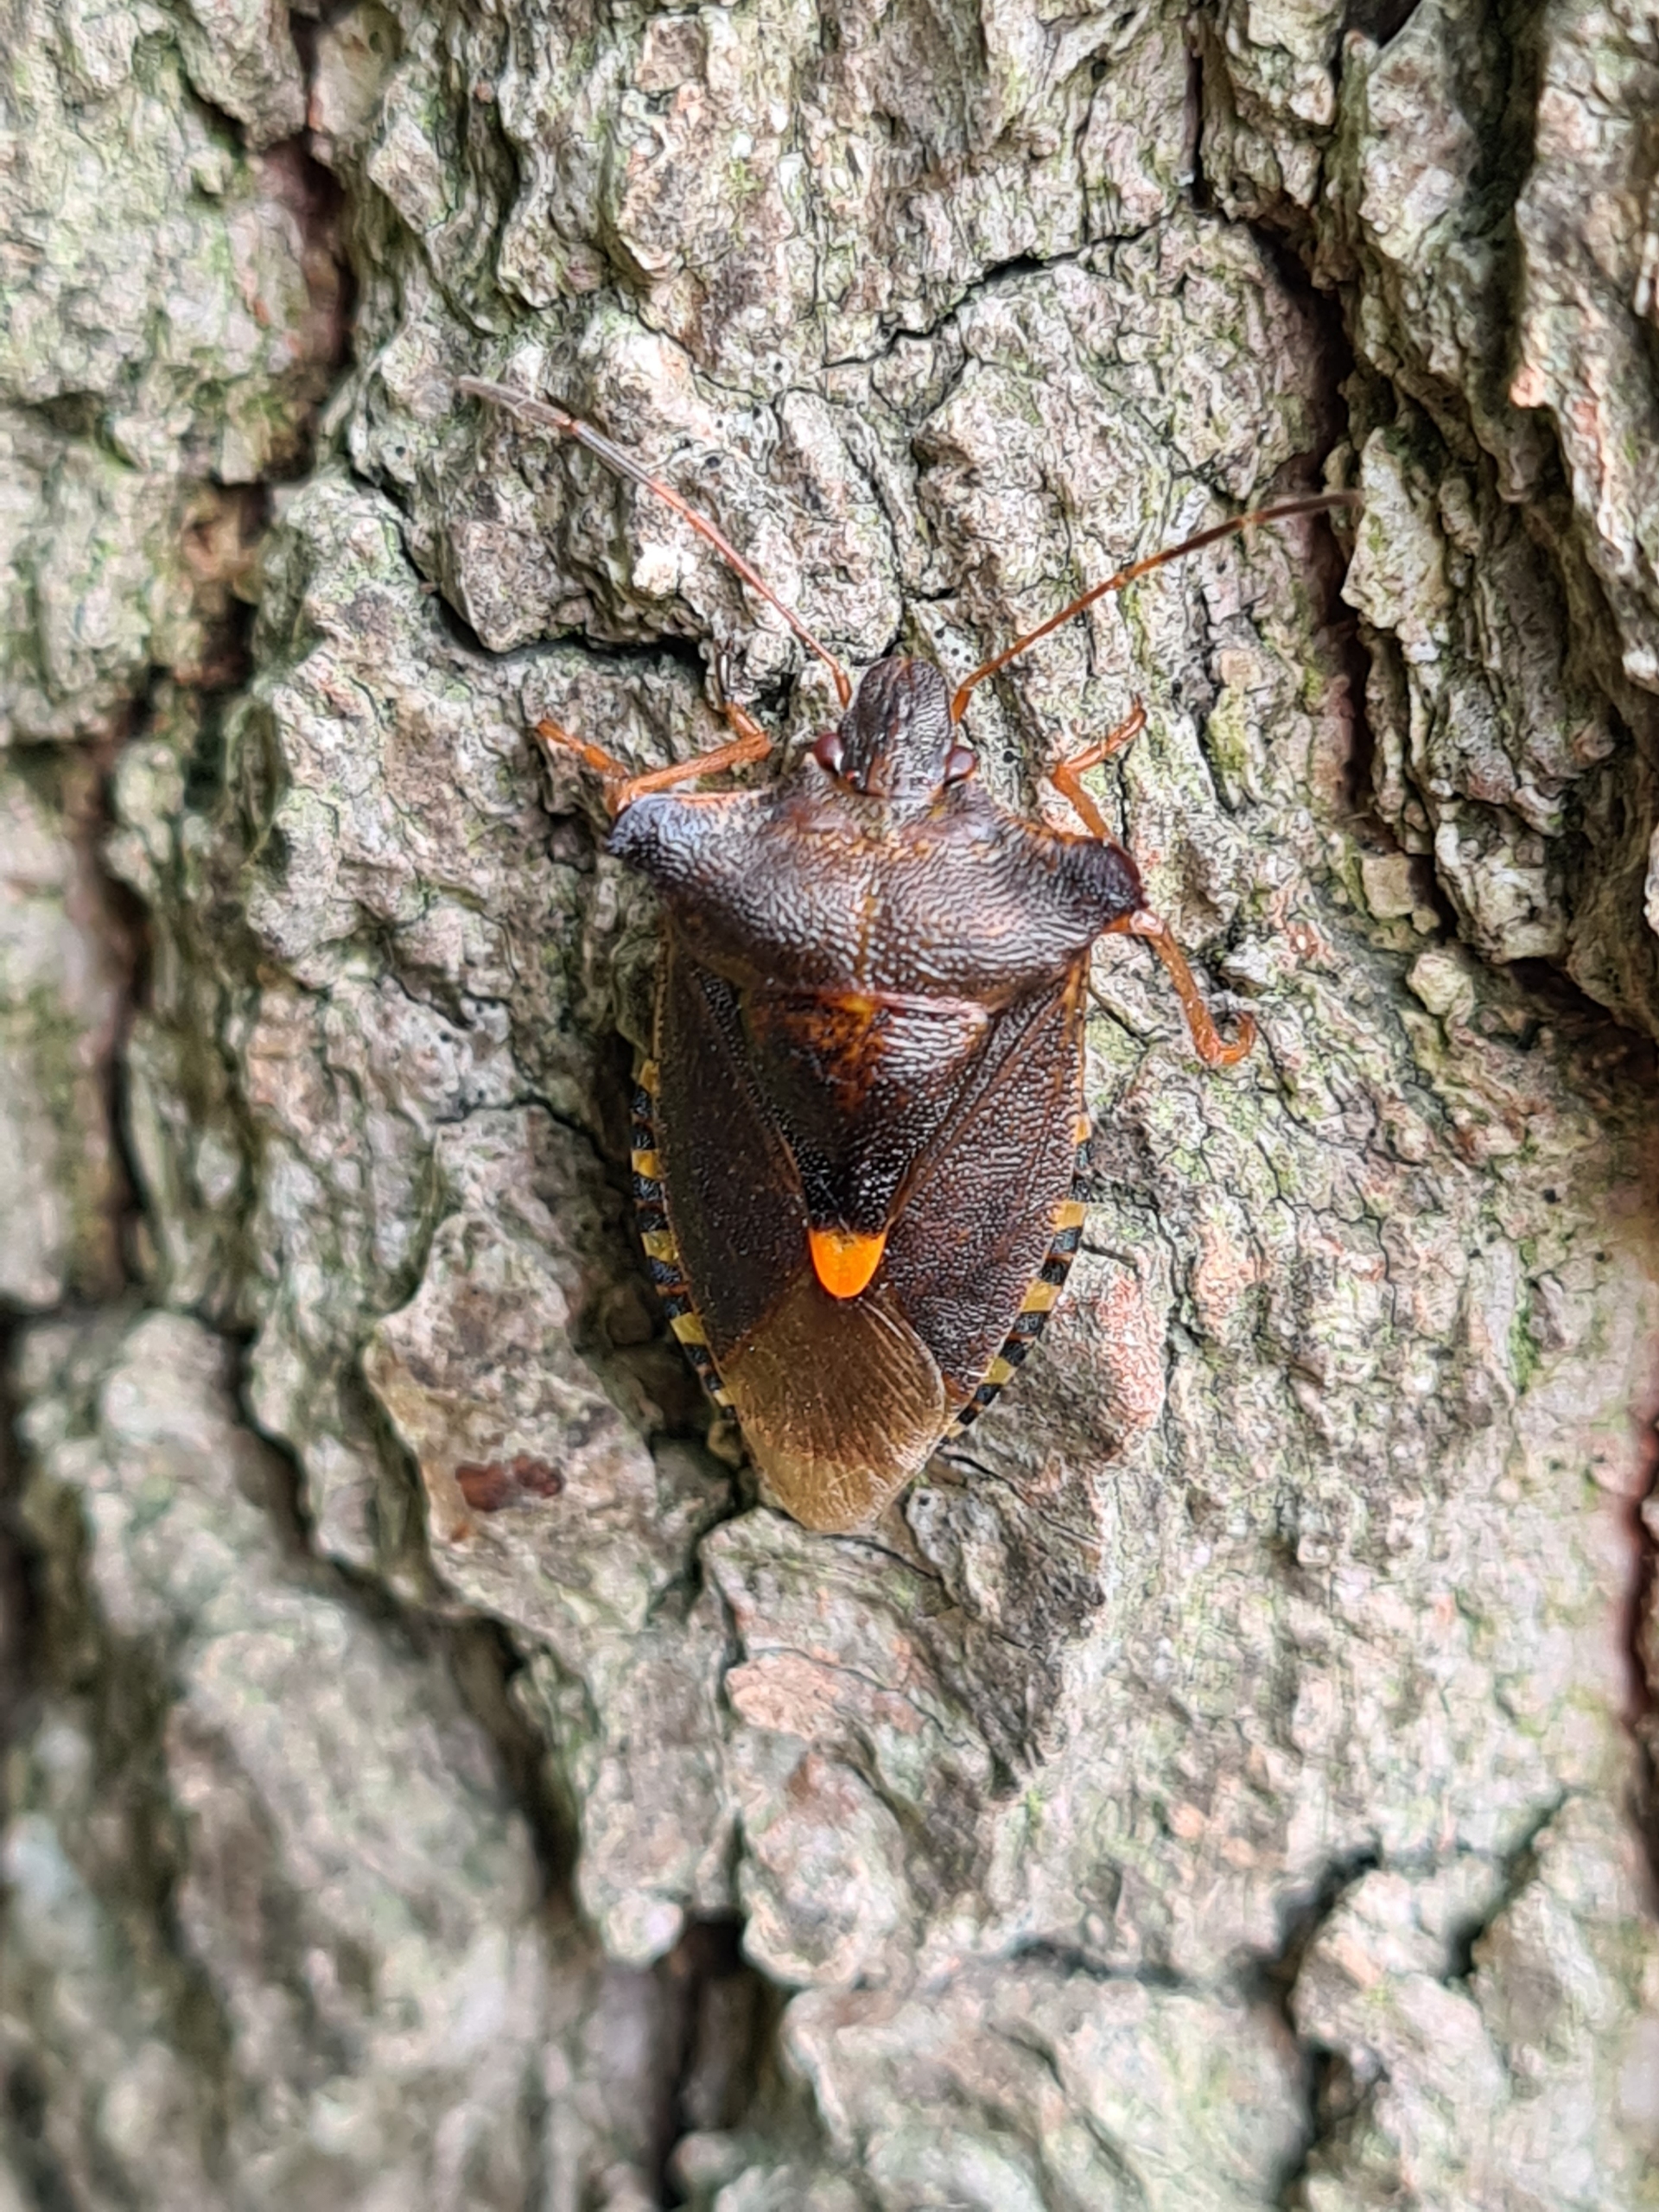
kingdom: Animalia
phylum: Arthropoda
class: Insecta
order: Hemiptera
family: Pentatomidae
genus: Pentatoma
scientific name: Pentatoma rufipes
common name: Rødbenet bredtæge
